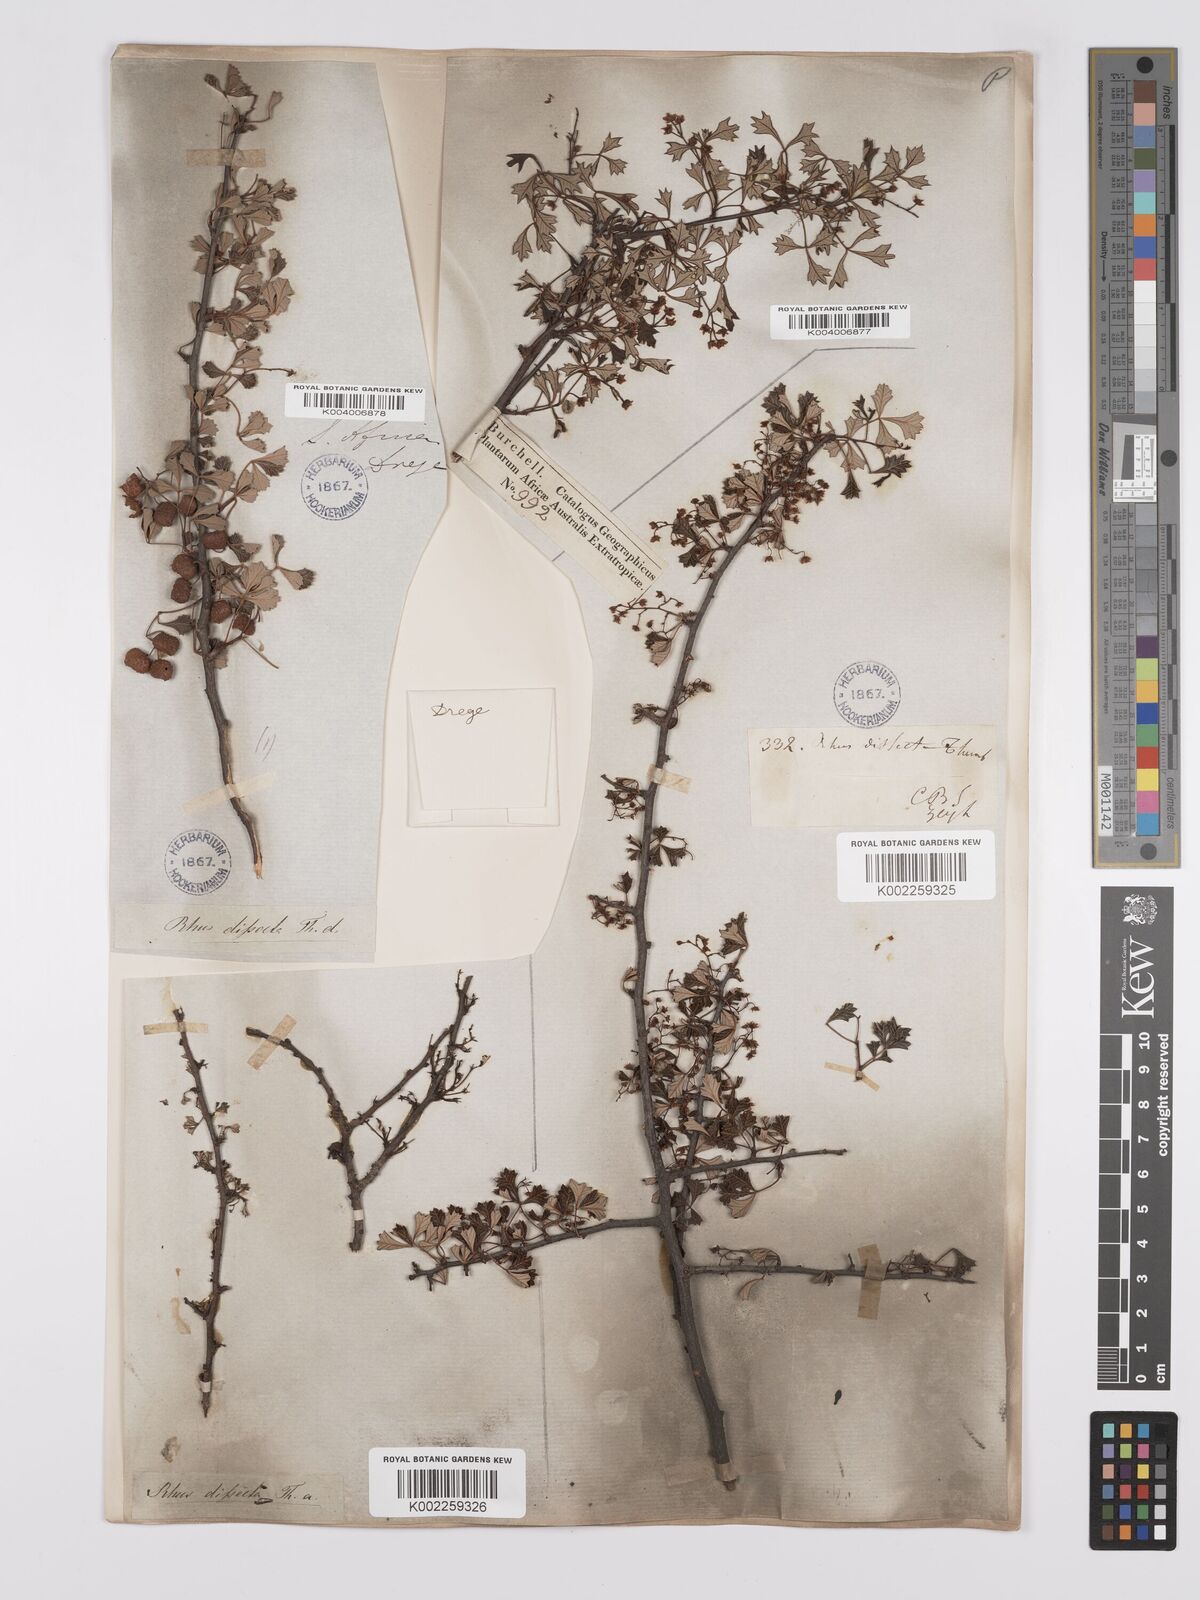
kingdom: Plantae
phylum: Tracheophyta
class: Magnoliopsida
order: Sapindales
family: Anacardiaceae
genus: Searsia
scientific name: Searsia dissecta
